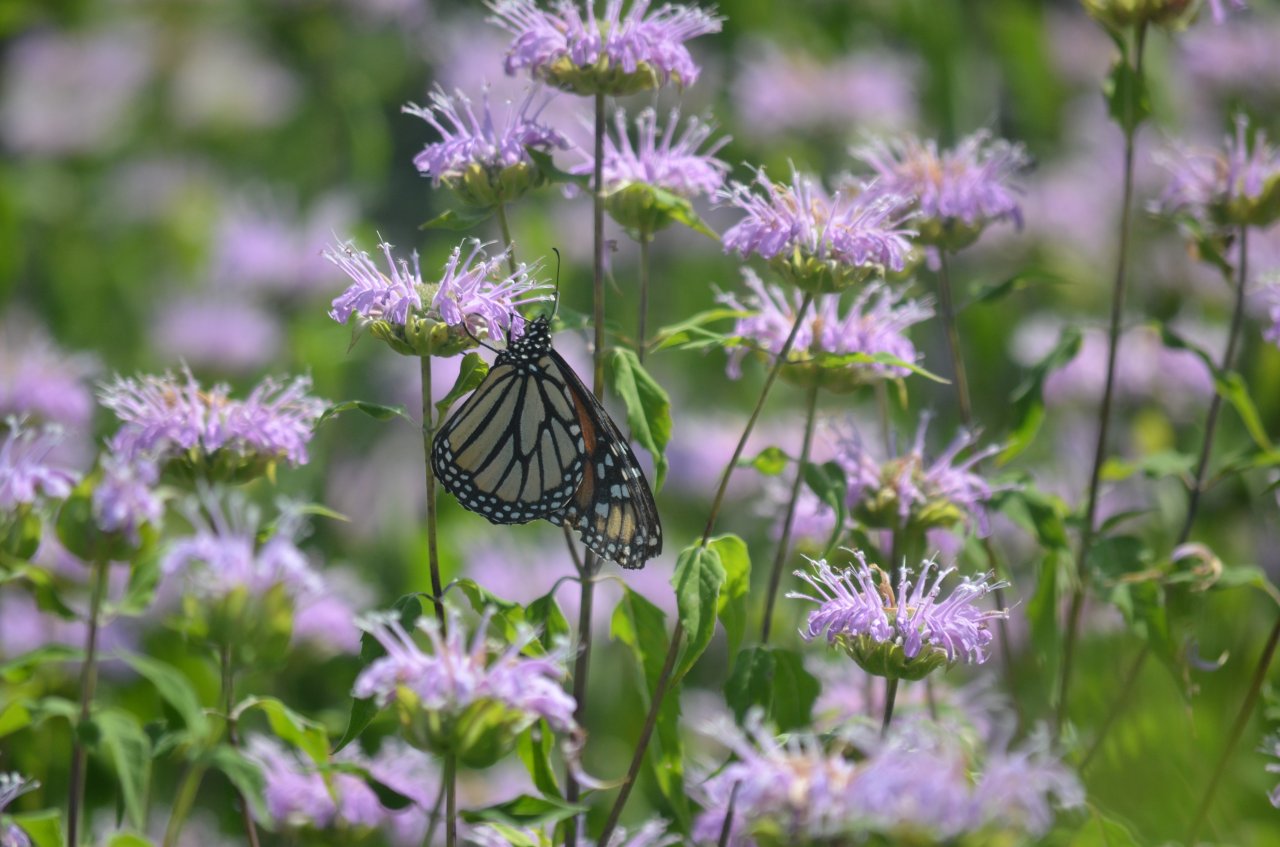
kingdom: Animalia
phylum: Arthropoda
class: Insecta
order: Lepidoptera
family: Nymphalidae
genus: Danaus
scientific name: Danaus plexippus
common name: Monarch
